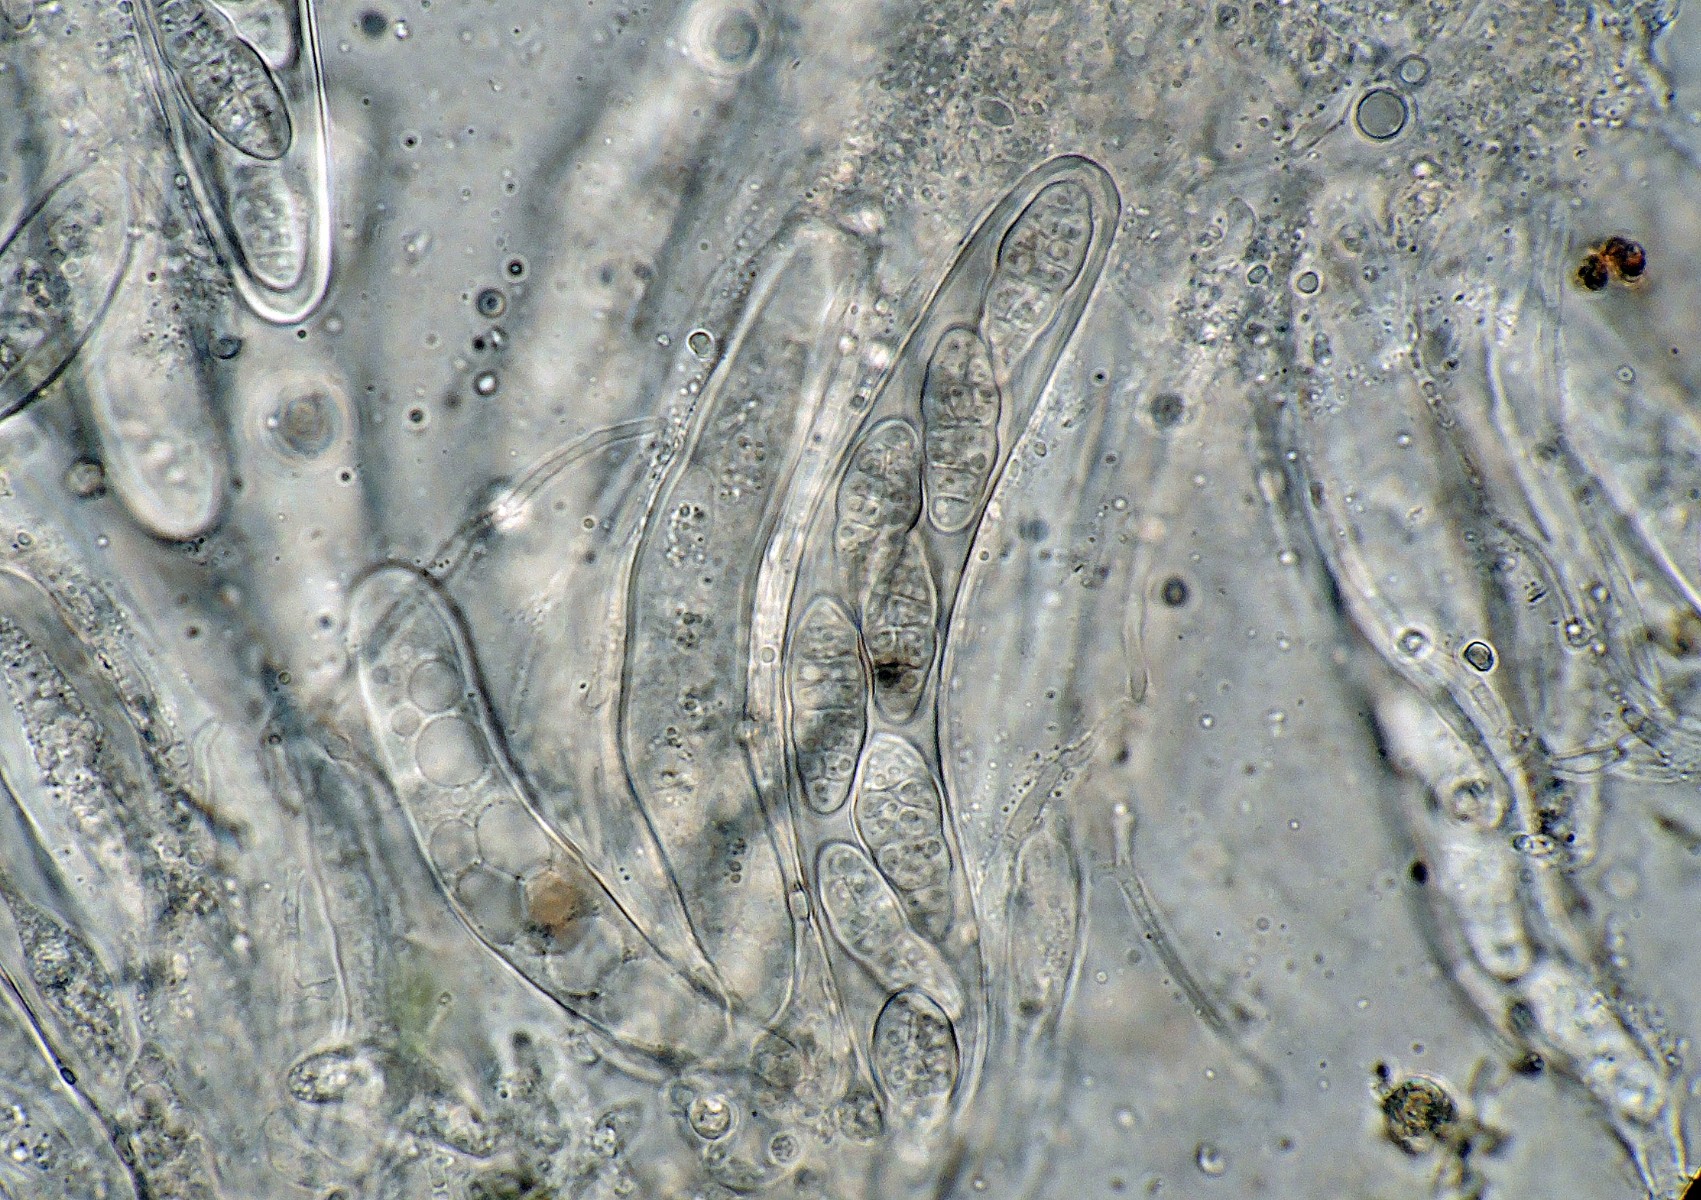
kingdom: Fungi
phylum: Ascomycota
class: Dothideomycetes
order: Hysteriales
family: Hysteriaceae
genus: Hysterobrevium
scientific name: Hysterobrevium smilacis
